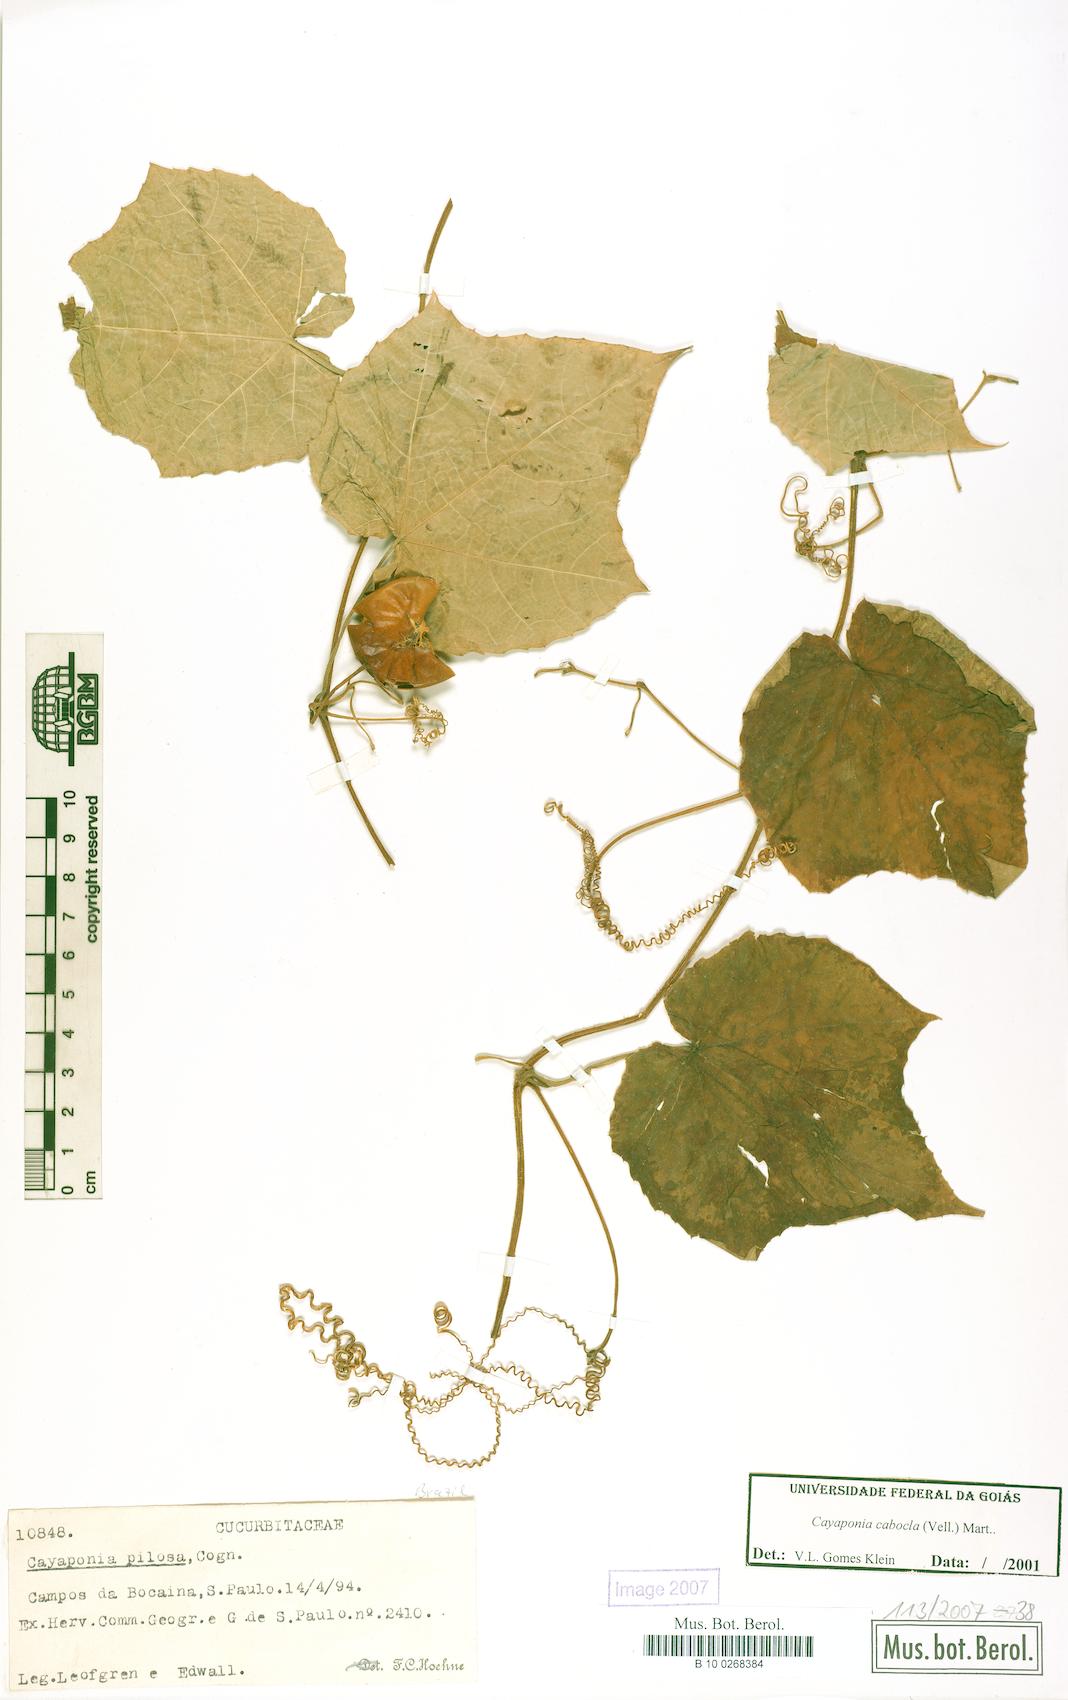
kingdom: Plantae
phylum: Tracheophyta
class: Magnoliopsida
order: Cucurbitales
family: Cucurbitaceae
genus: Cayaponia
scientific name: Cayaponia cabocla
